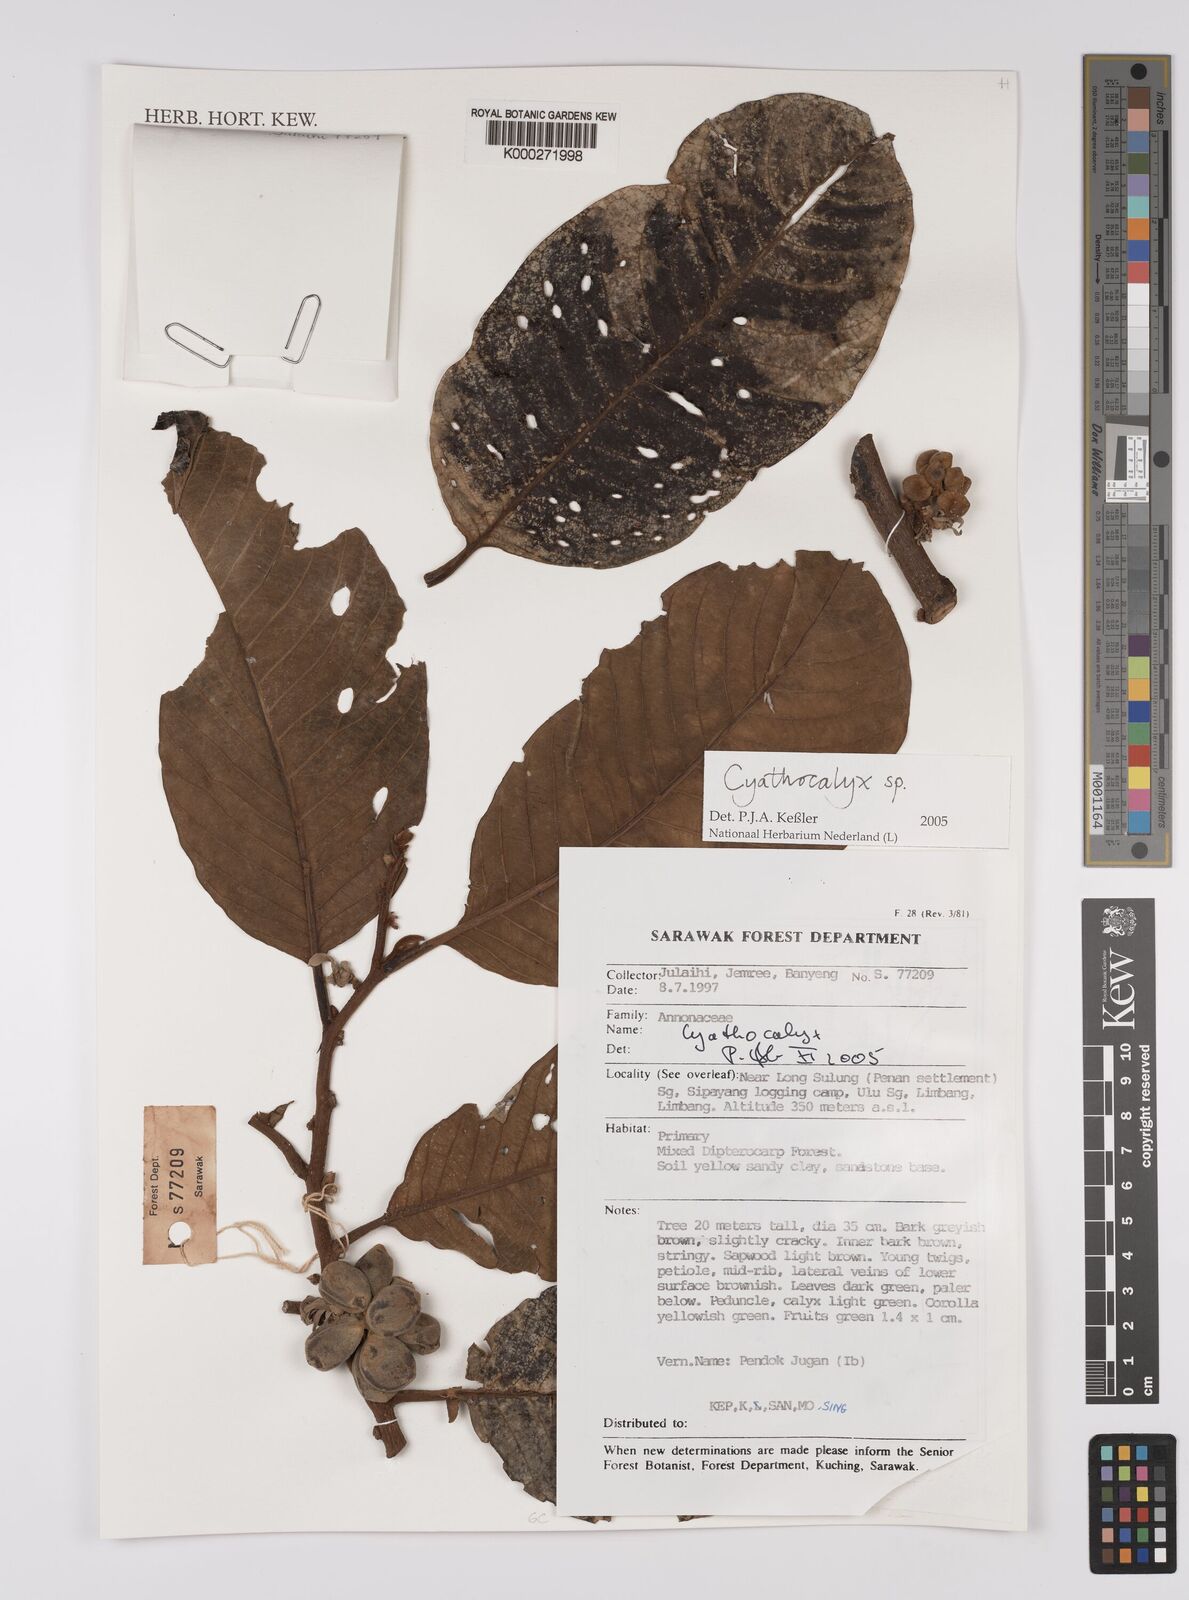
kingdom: Plantae
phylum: Tracheophyta
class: Magnoliopsida
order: Magnoliales
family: Annonaceae
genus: Cyathocalyx
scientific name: Cyathocalyx
